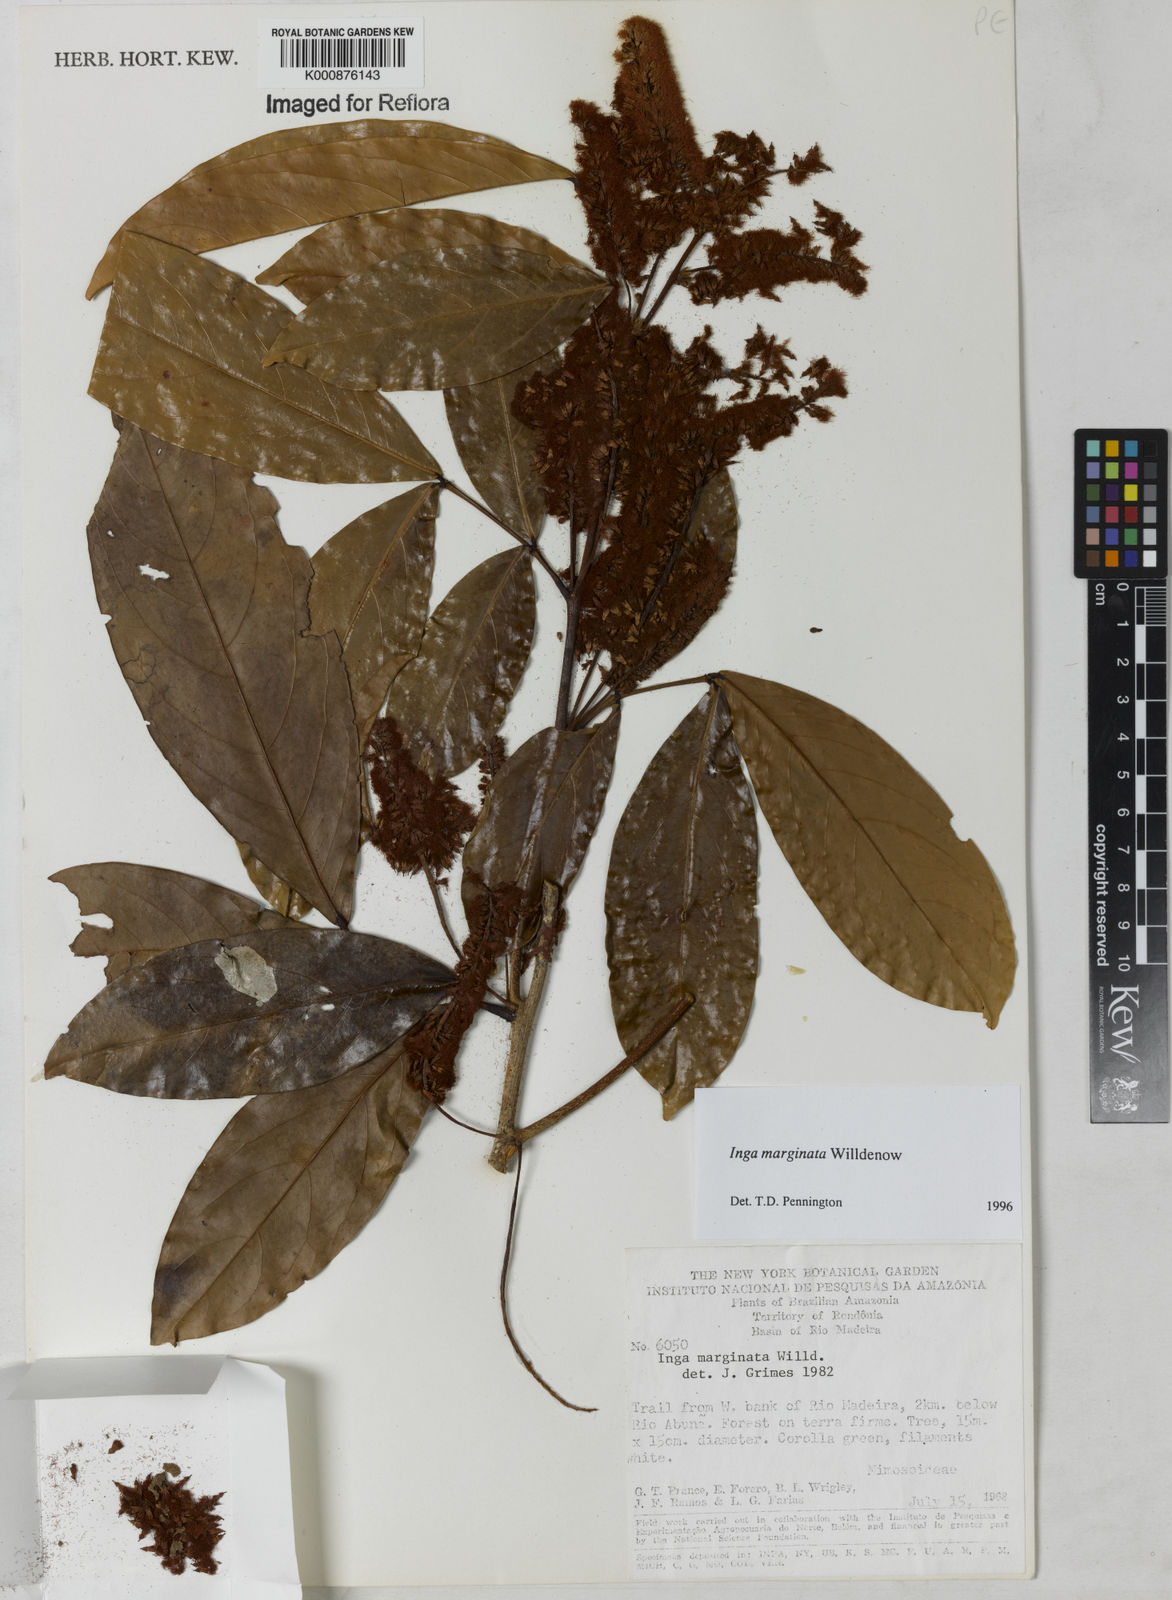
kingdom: Plantae
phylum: Tracheophyta
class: Magnoliopsida
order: Fabales
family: Fabaceae
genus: Inga
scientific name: Inga marginata
